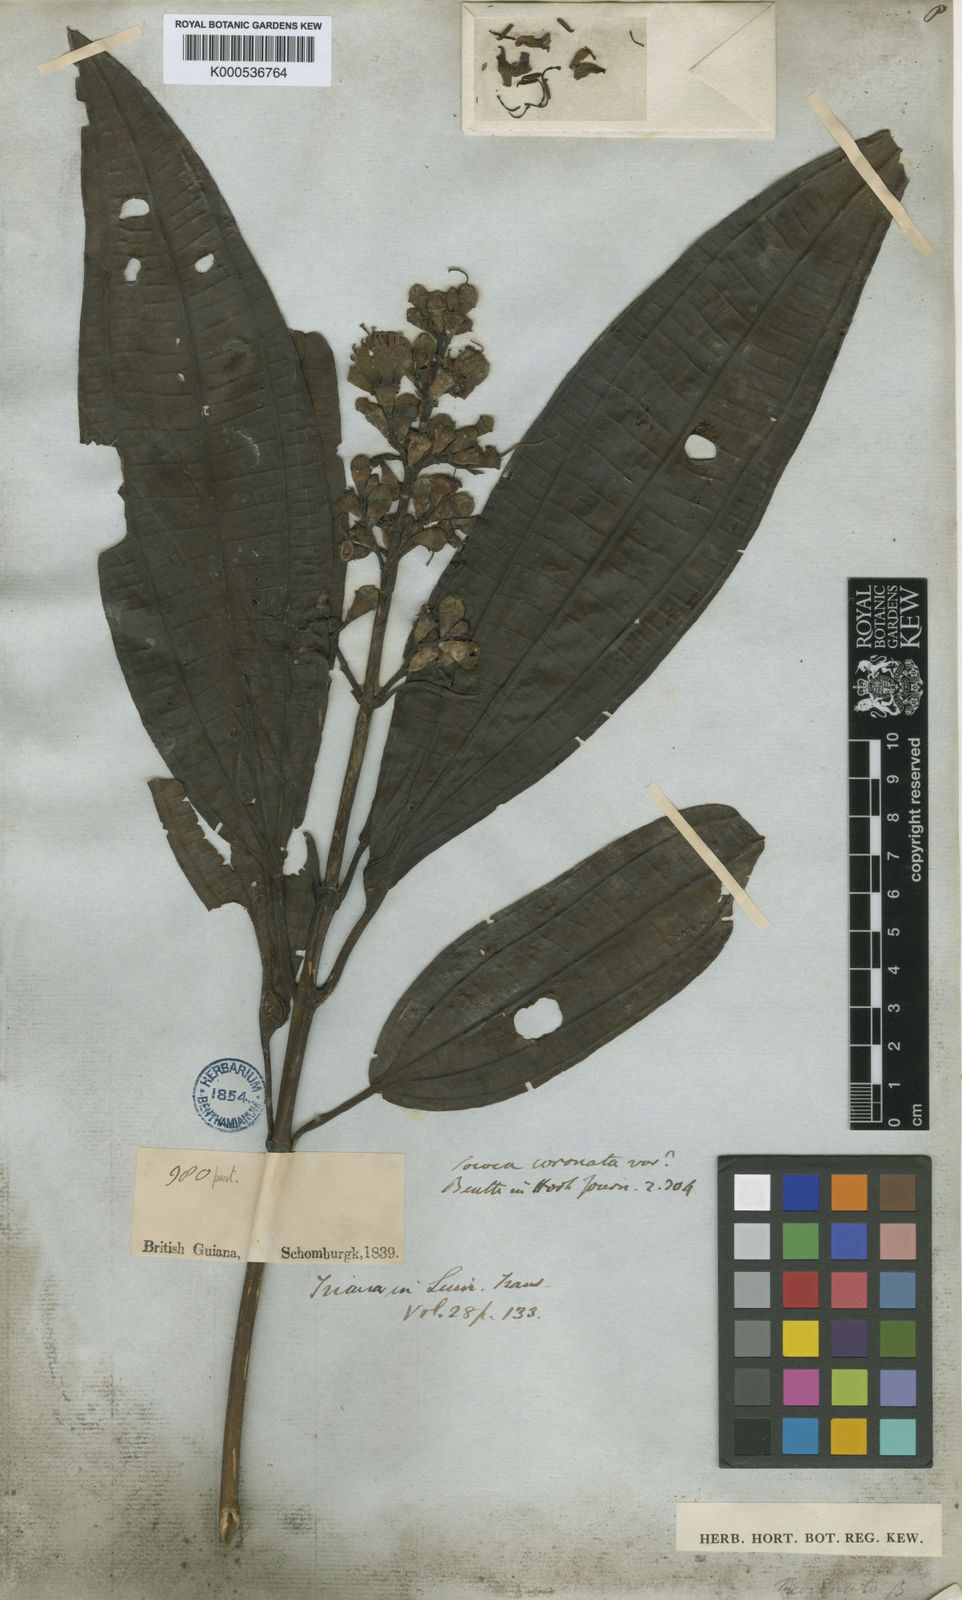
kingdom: Plantae
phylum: Tracheophyta
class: Magnoliopsida
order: Myrtales
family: Melastomataceae
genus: Miconia
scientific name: Miconia tococoronata
